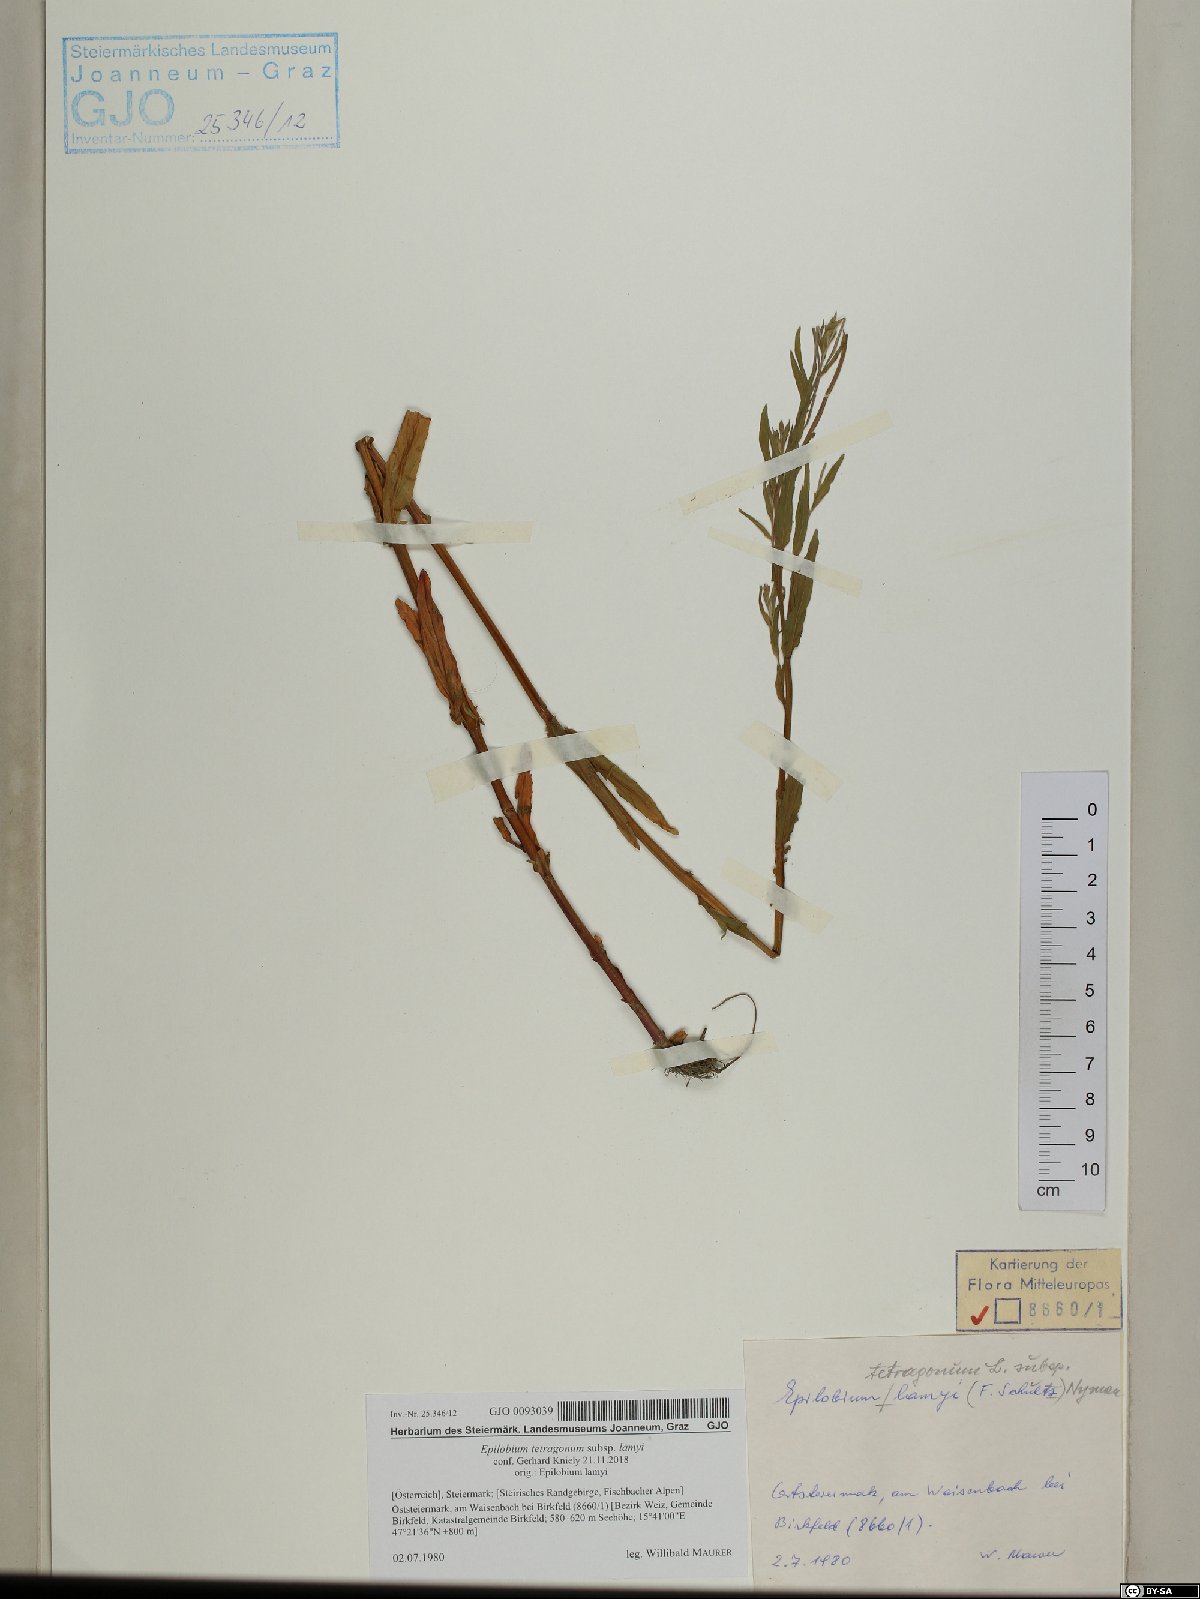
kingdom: Plantae
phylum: Tracheophyta
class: Magnoliopsida
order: Myrtales
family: Onagraceae
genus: Epilobium
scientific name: Epilobium lamyi
